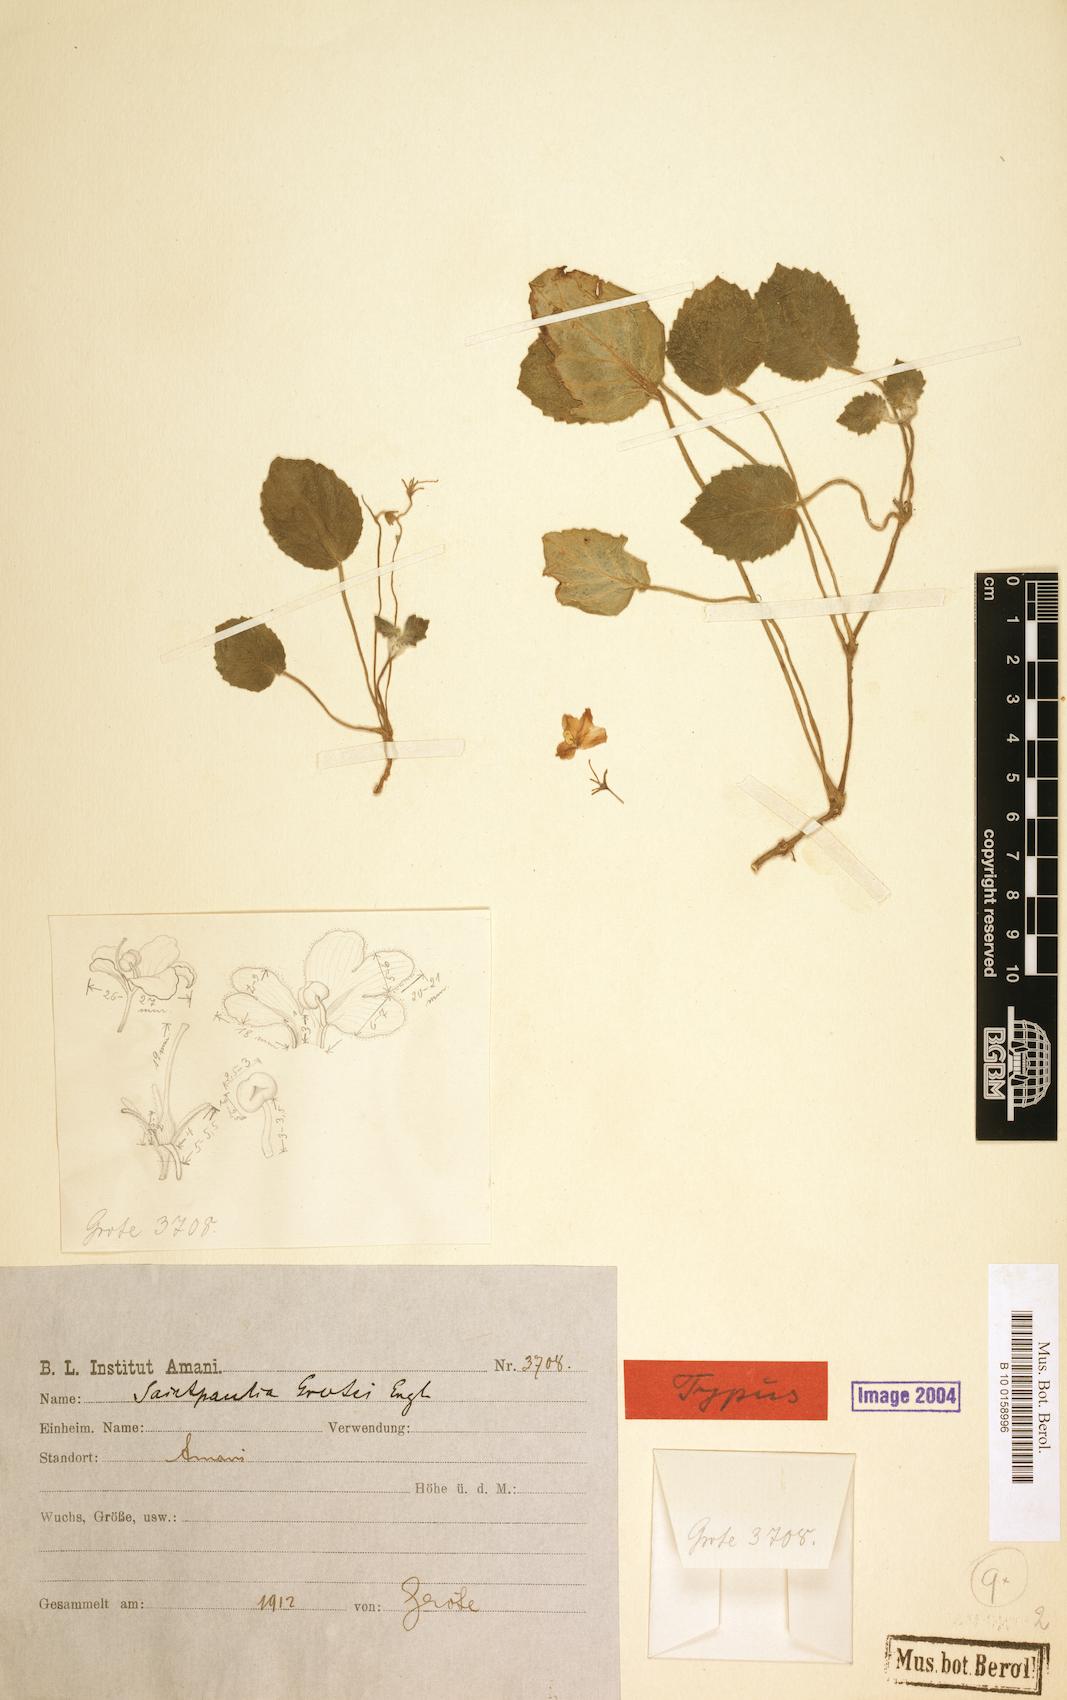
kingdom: Plantae
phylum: Tracheophyta
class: Magnoliopsida
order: Lamiales
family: Gesneriaceae
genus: Streptocarpus
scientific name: Streptocarpus ionanthus
